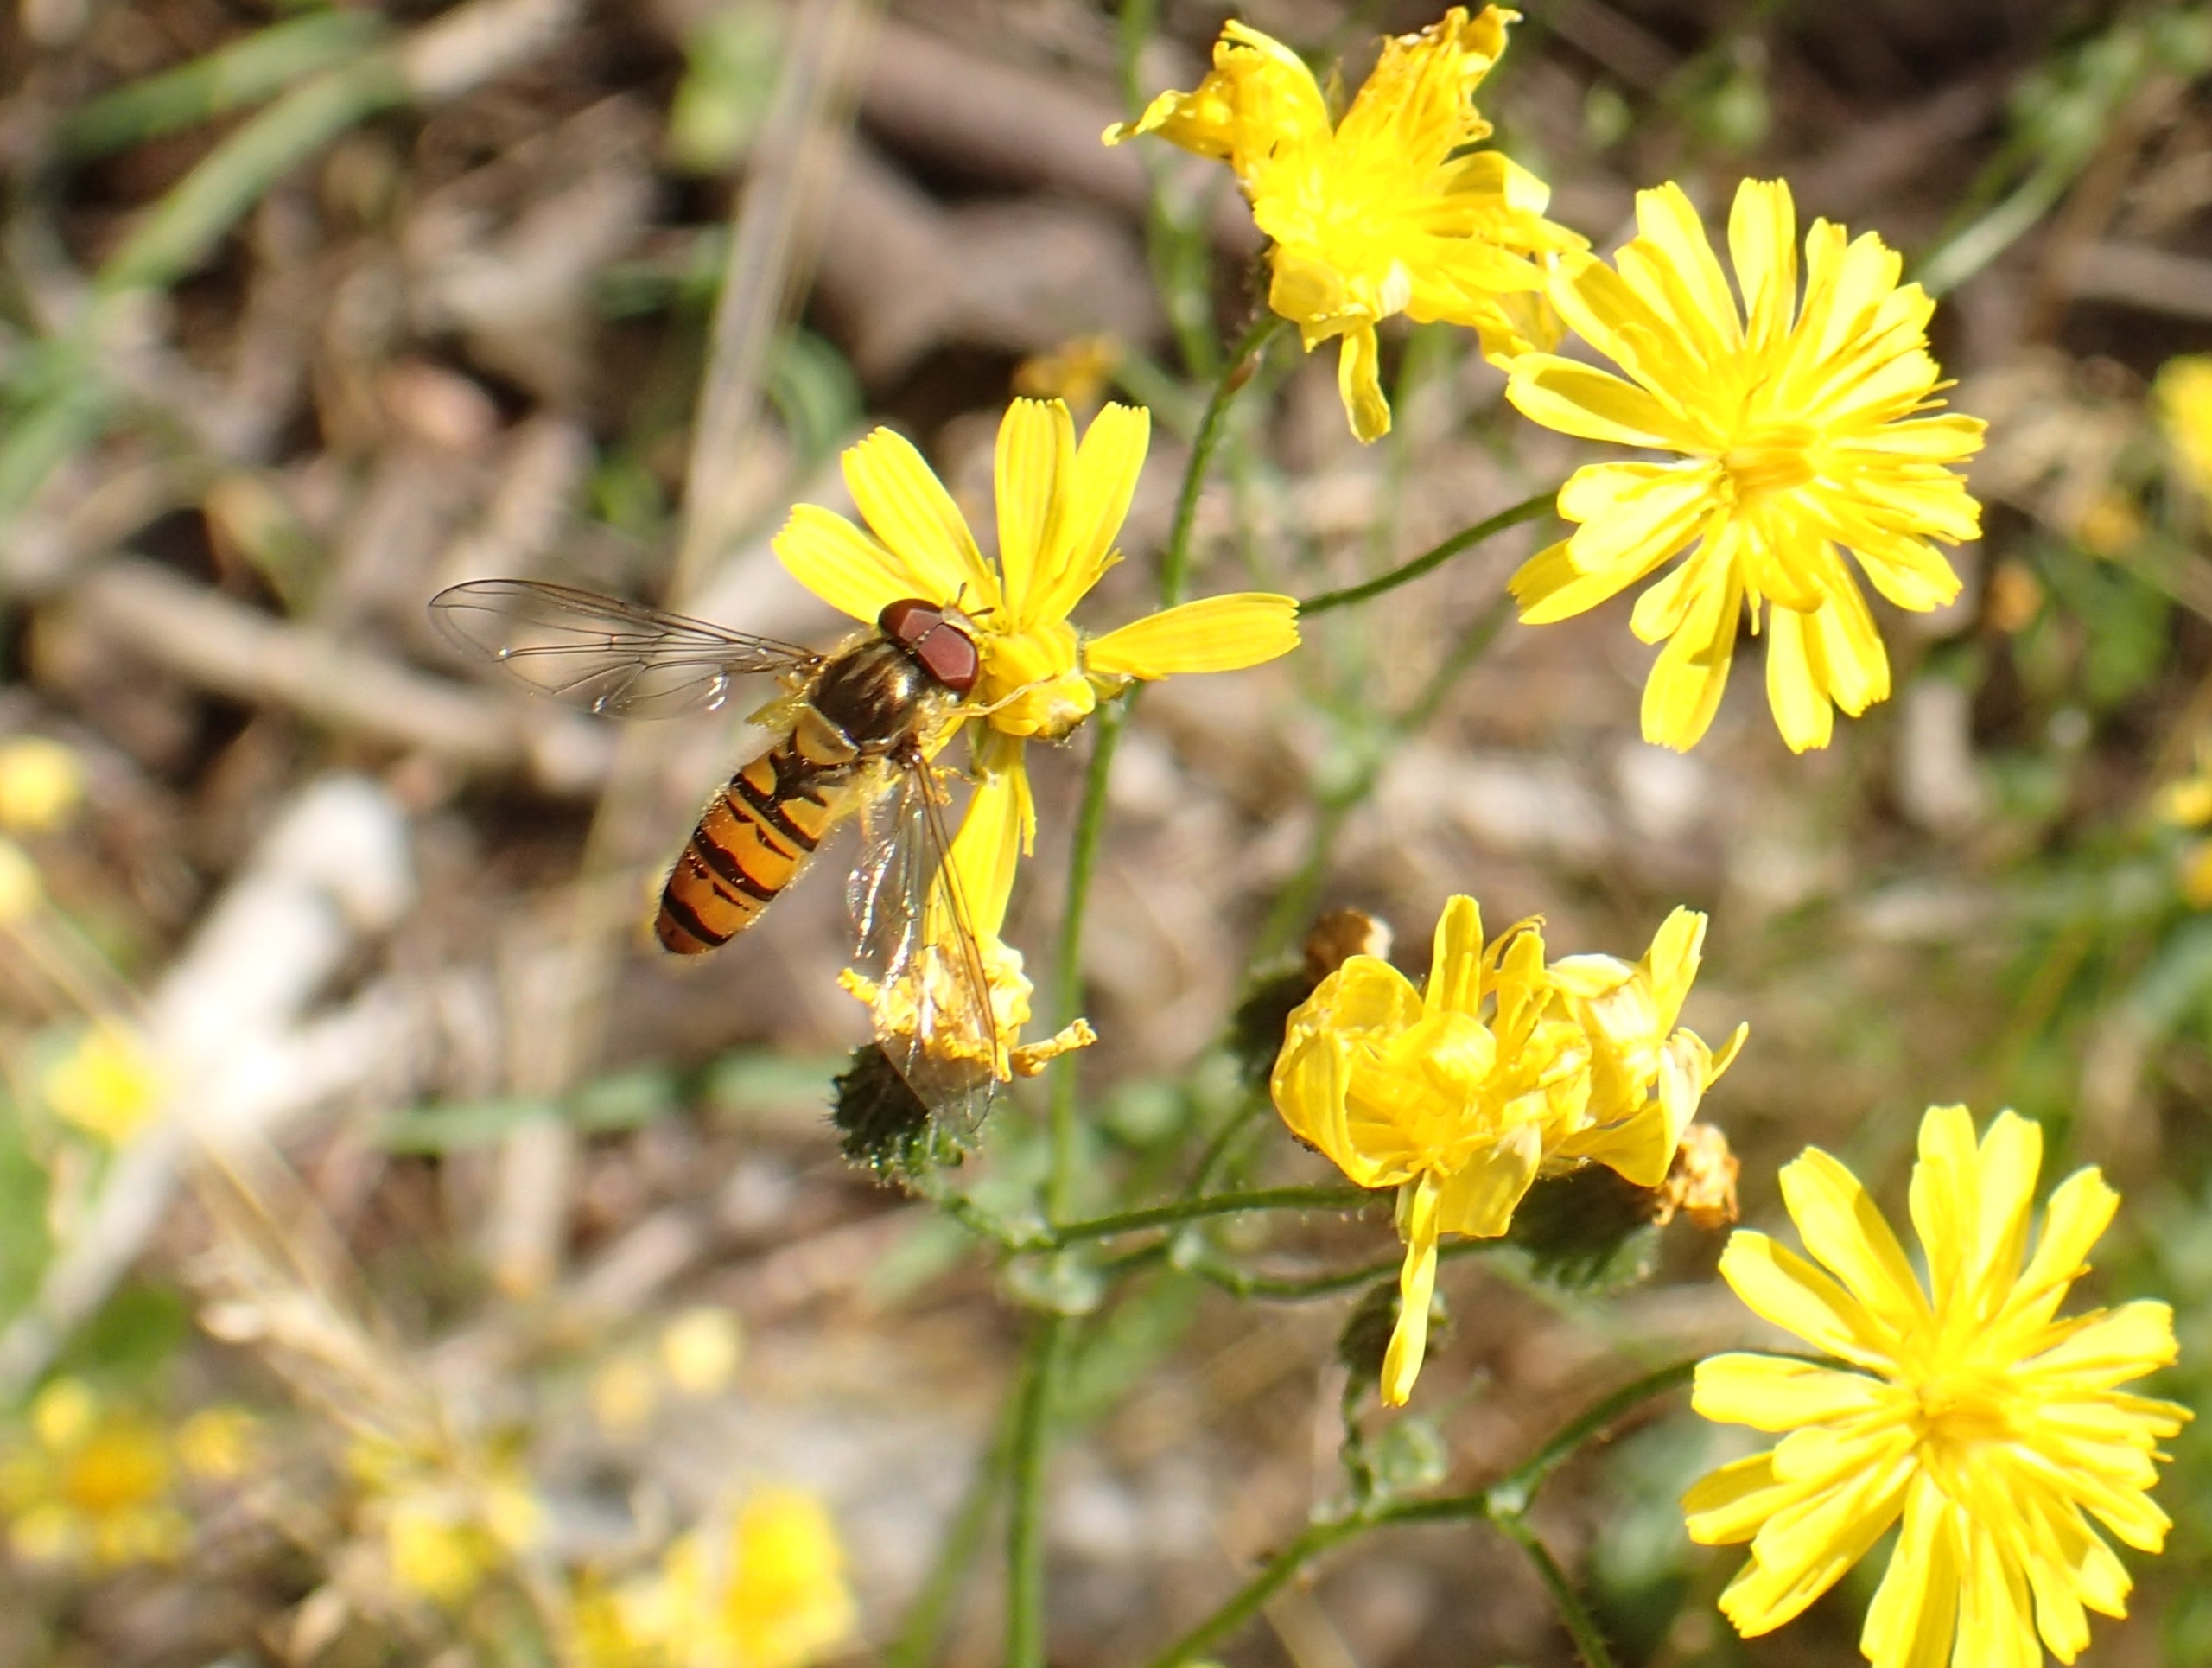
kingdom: Animalia
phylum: Arthropoda
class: Insecta
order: Diptera
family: Syrphidae
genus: Episyrphus
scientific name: Episyrphus balteatus
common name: Dobbeltbåndet svirreflue
